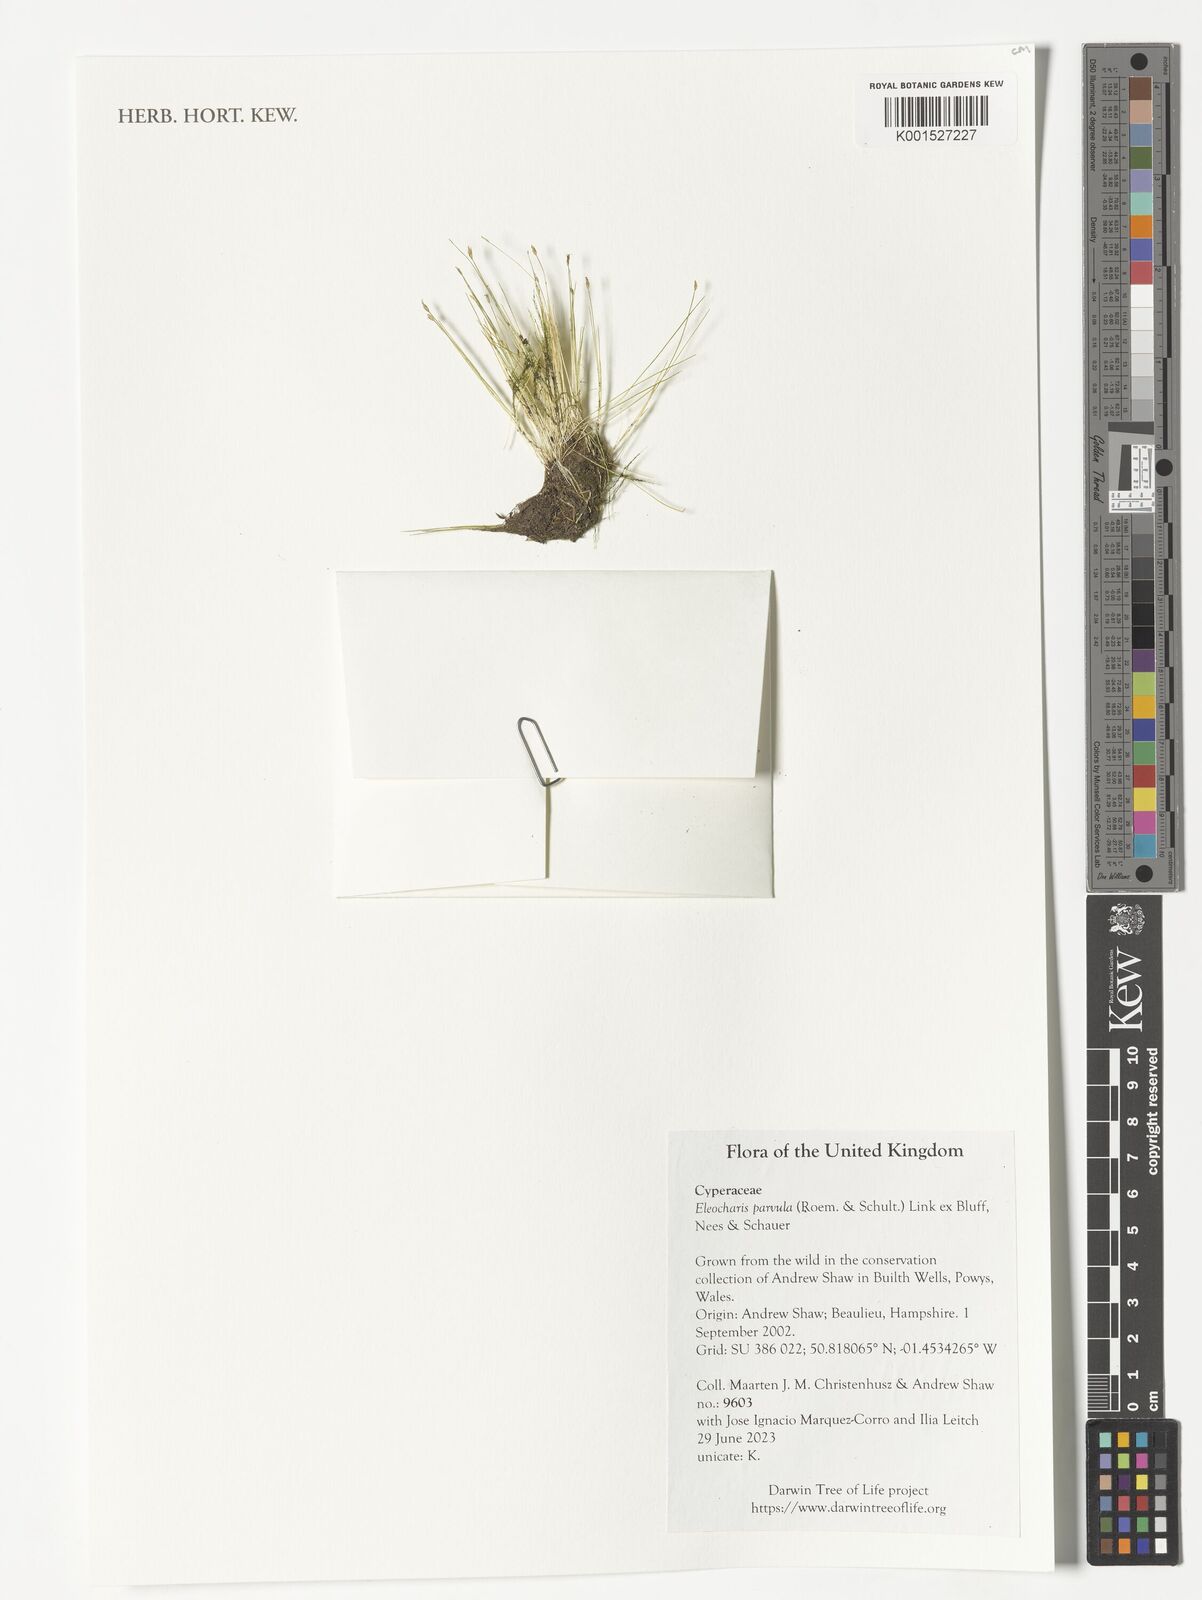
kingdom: Plantae
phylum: Tracheophyta
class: Liliopsida
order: Poales
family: Cyperaceae
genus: Eleocharis
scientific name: Eleocharis parvula
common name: Dwarf spike-rush
